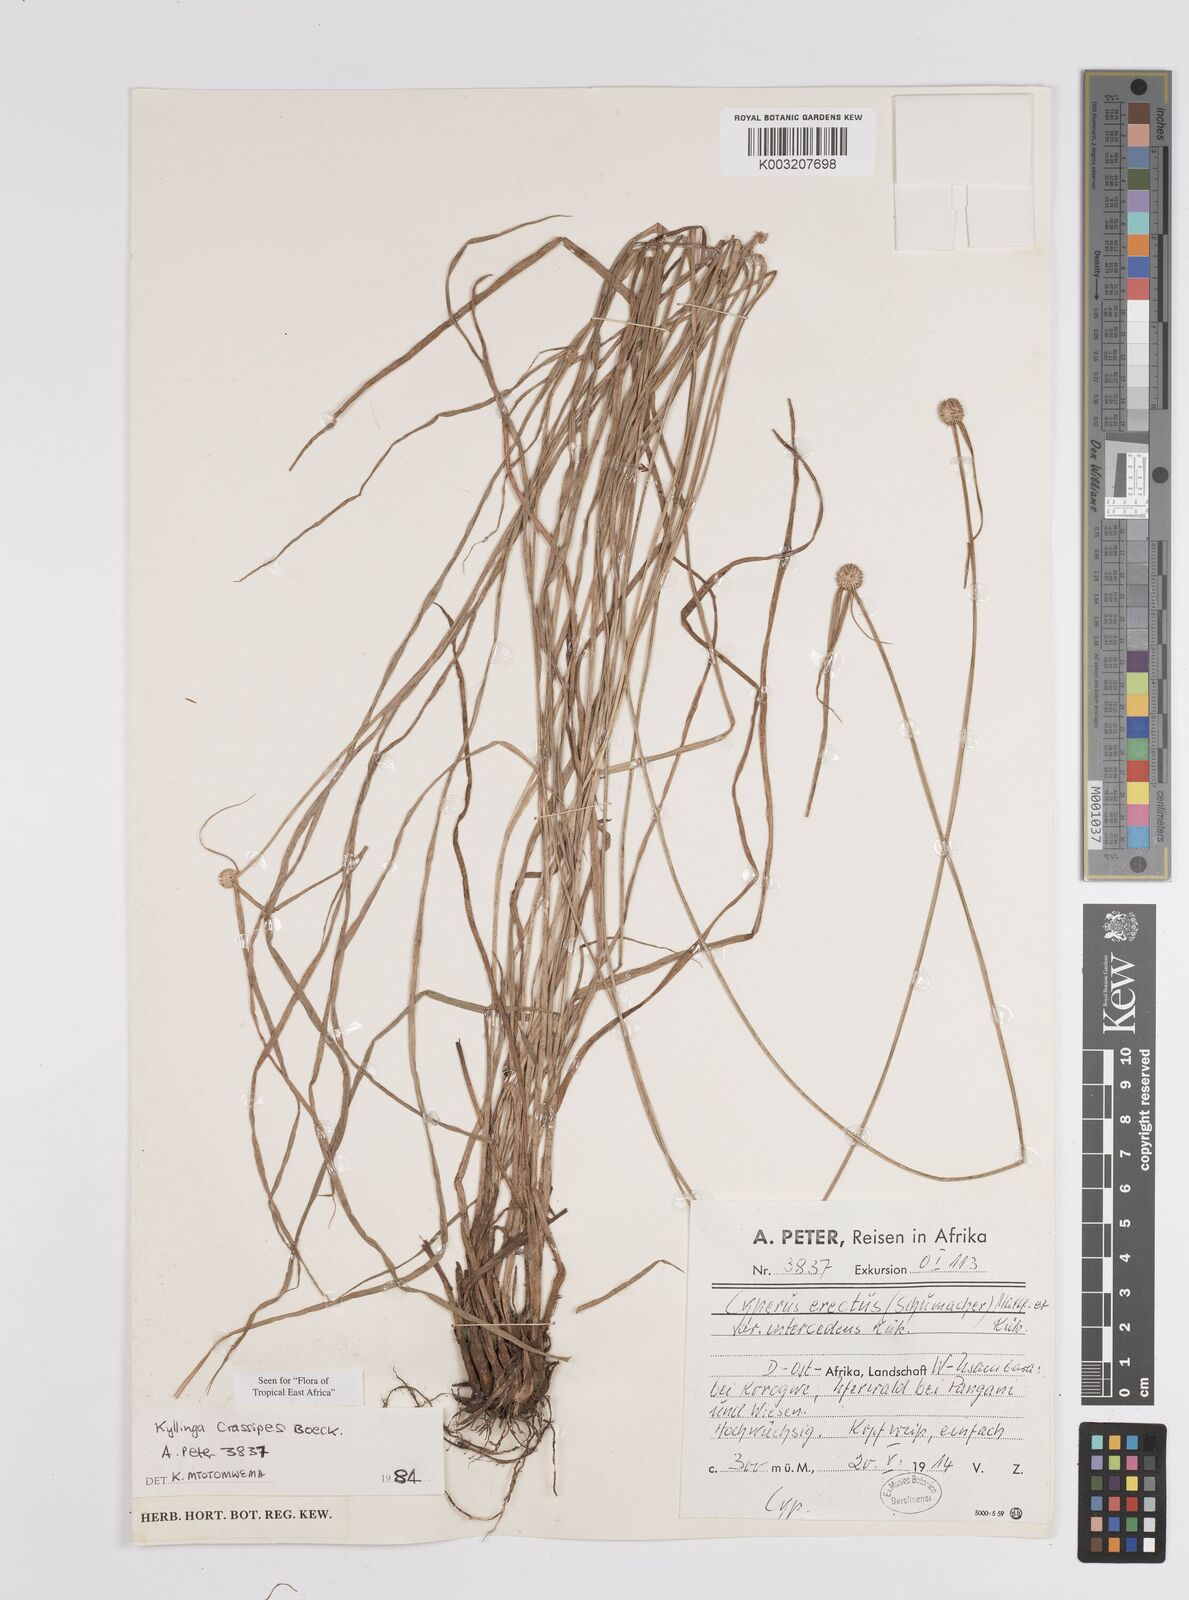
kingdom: Plantae
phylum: Tracheophyta
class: Liliopsida
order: Poales
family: Cyperaceae
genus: Cyperus
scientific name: Cyperus crassipes
